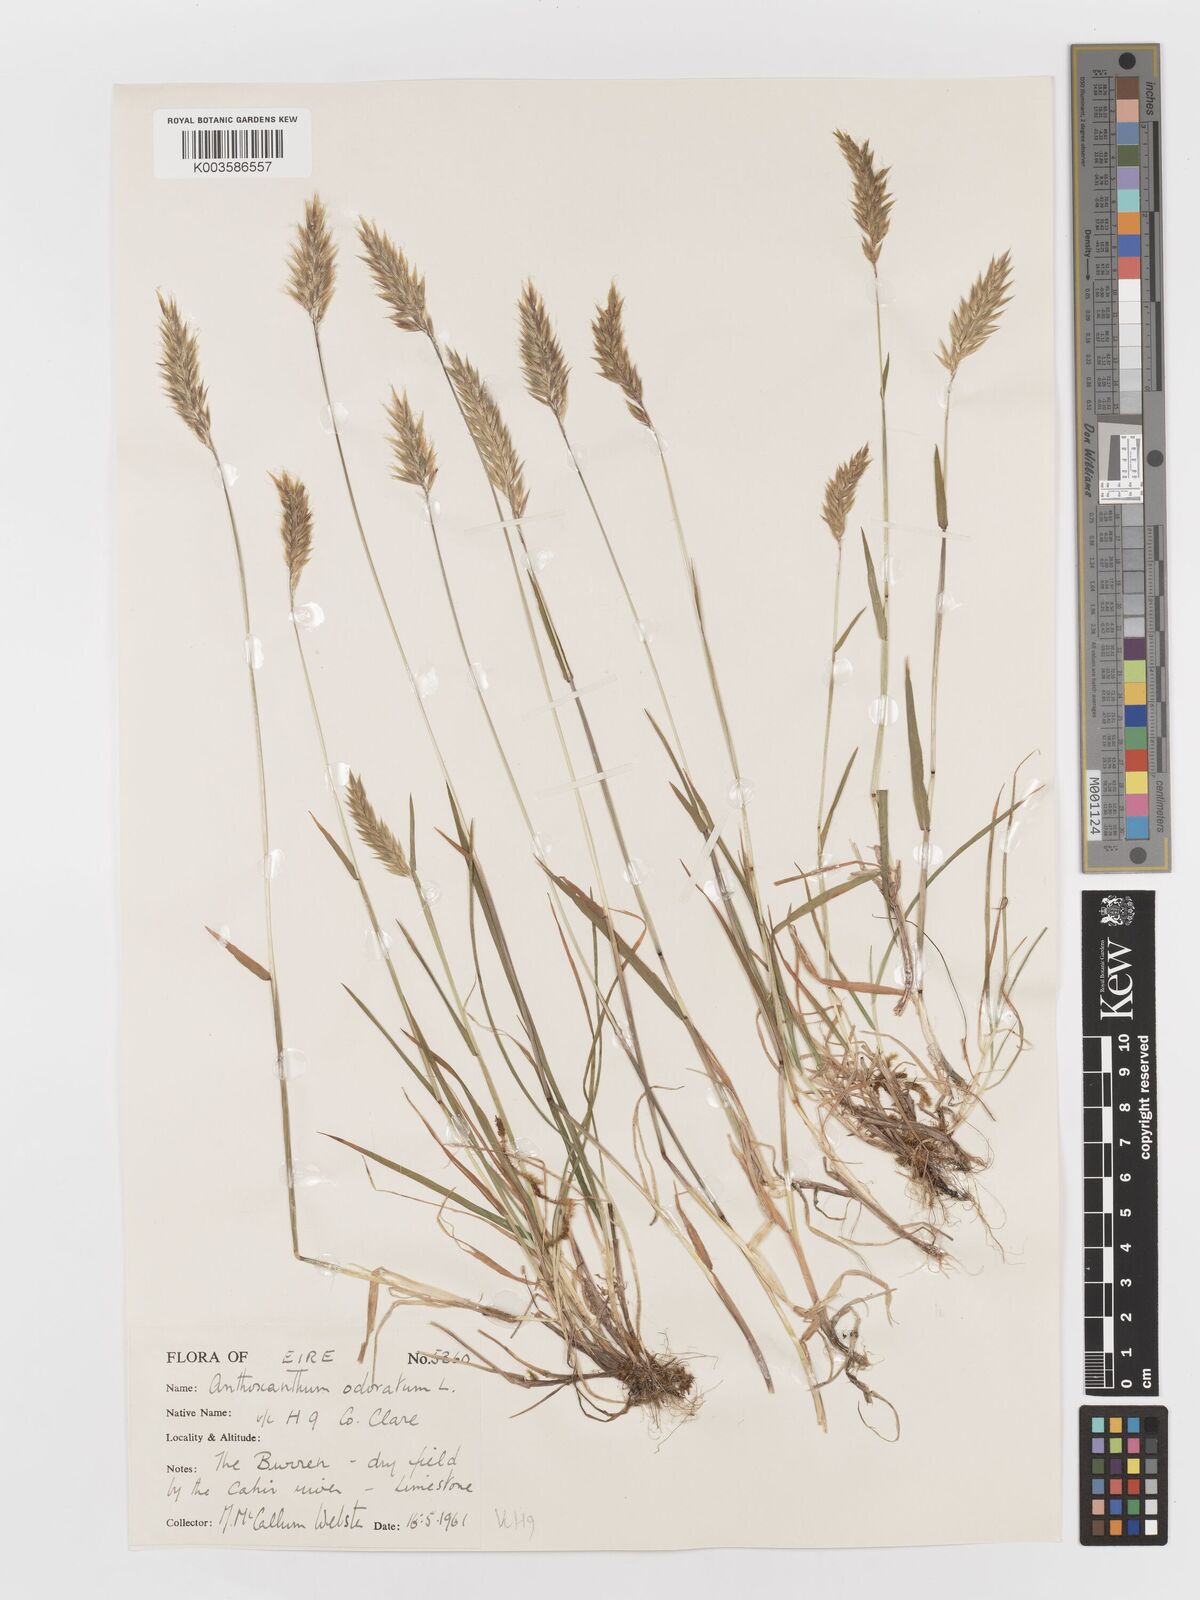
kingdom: Plantae
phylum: Tracheophyta
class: Liliopsida
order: Poales
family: Poaceae
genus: Anthoxanthum
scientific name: Anthoxanthum odoratum
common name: Sweet vernalgrass
